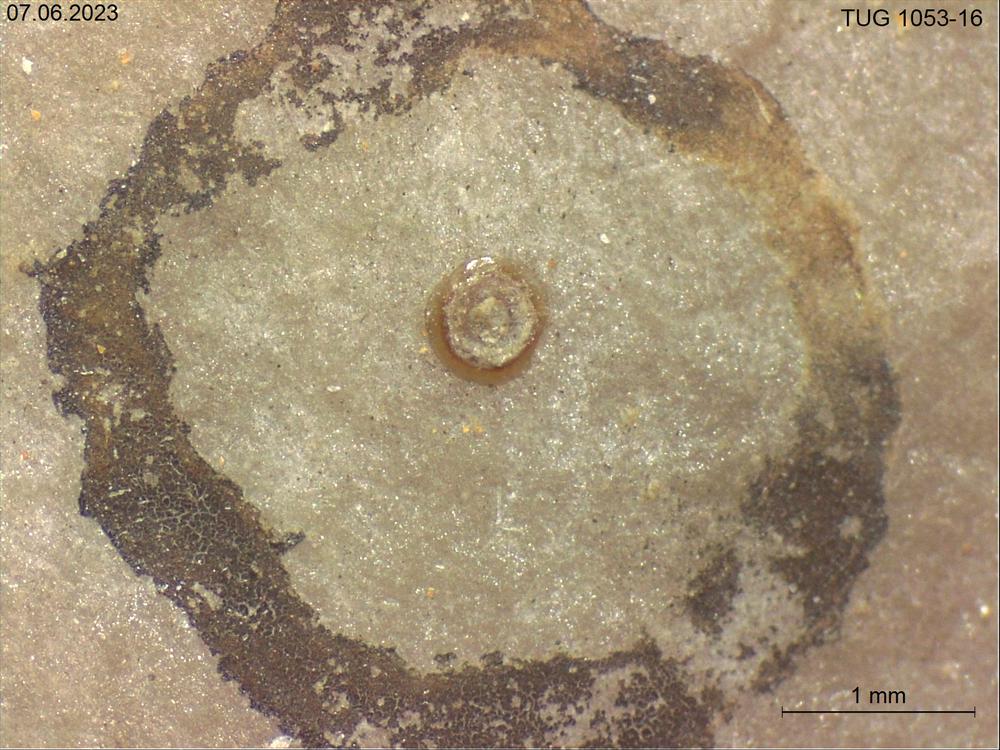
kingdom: Animalia
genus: Problematicum
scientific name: Problematicum
